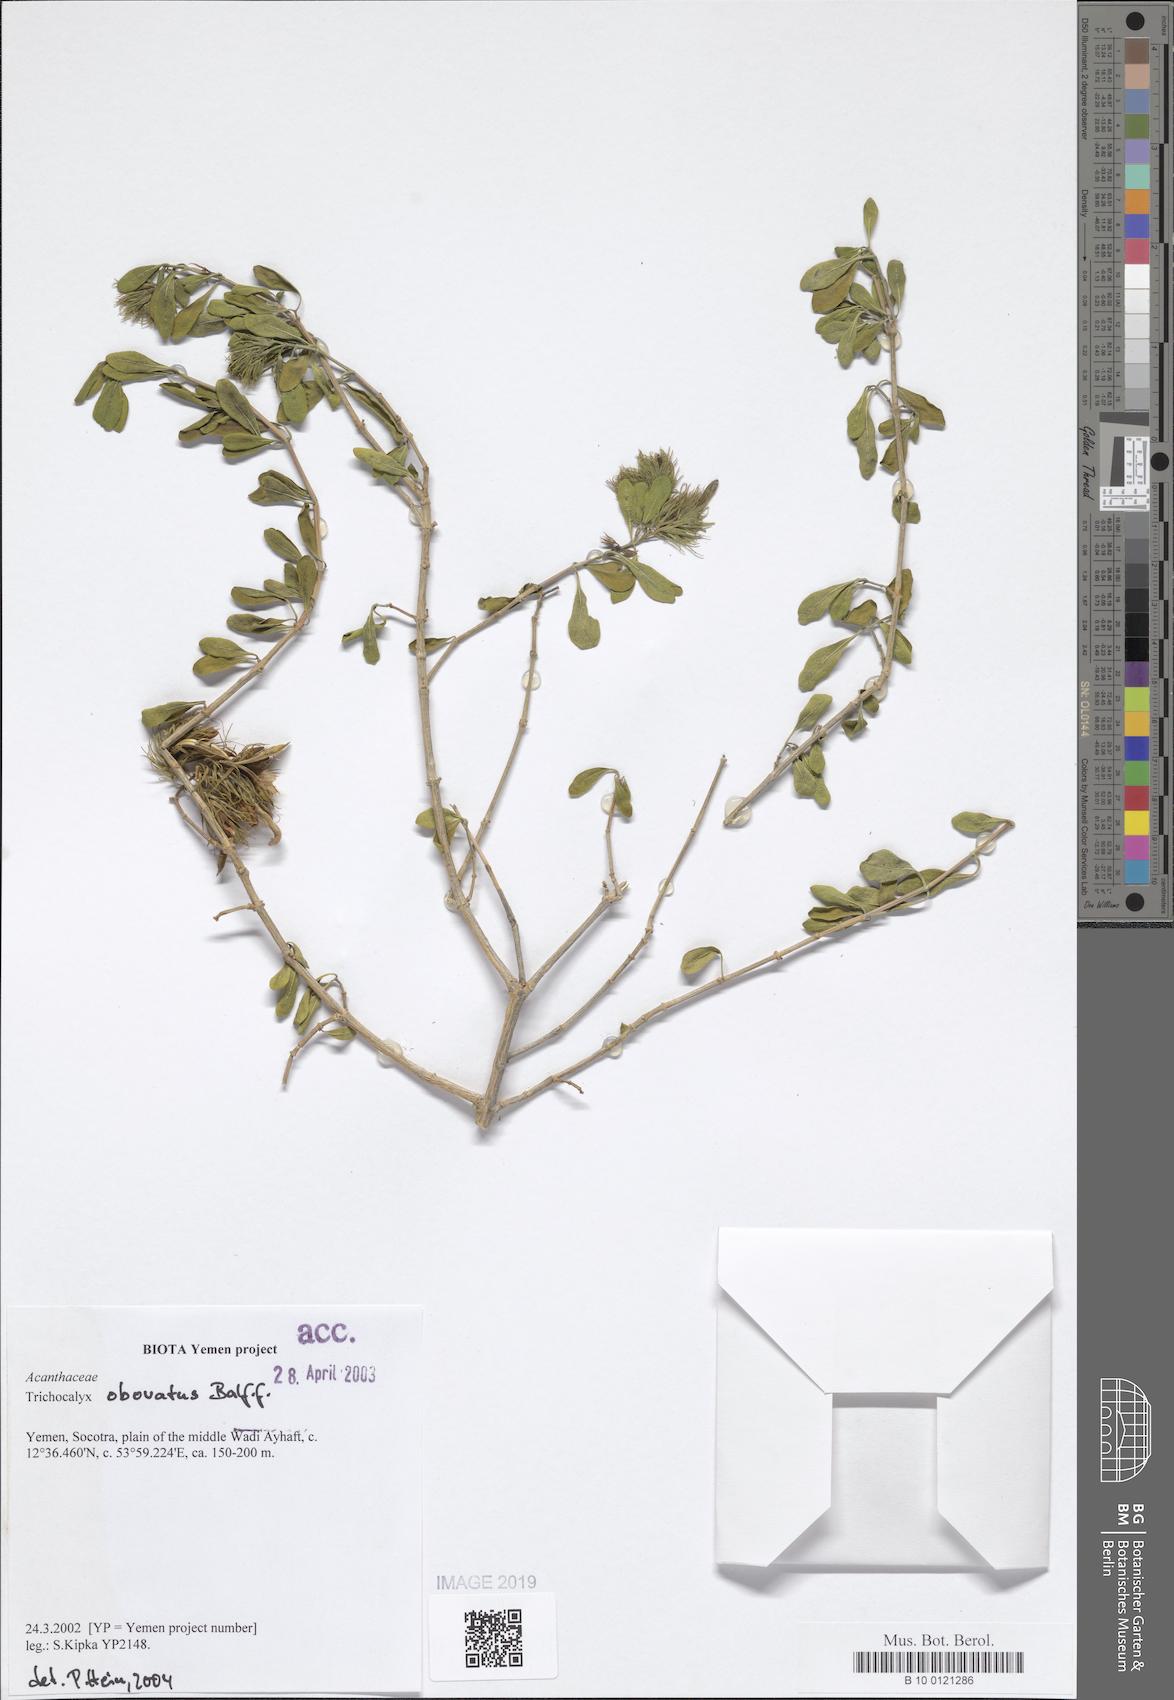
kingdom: Plantae
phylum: Tracheophyta
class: Magnoliopsida
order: Lamiales
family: Acanthaceae
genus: Trichocalyx
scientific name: Trichocalyx obovatus
